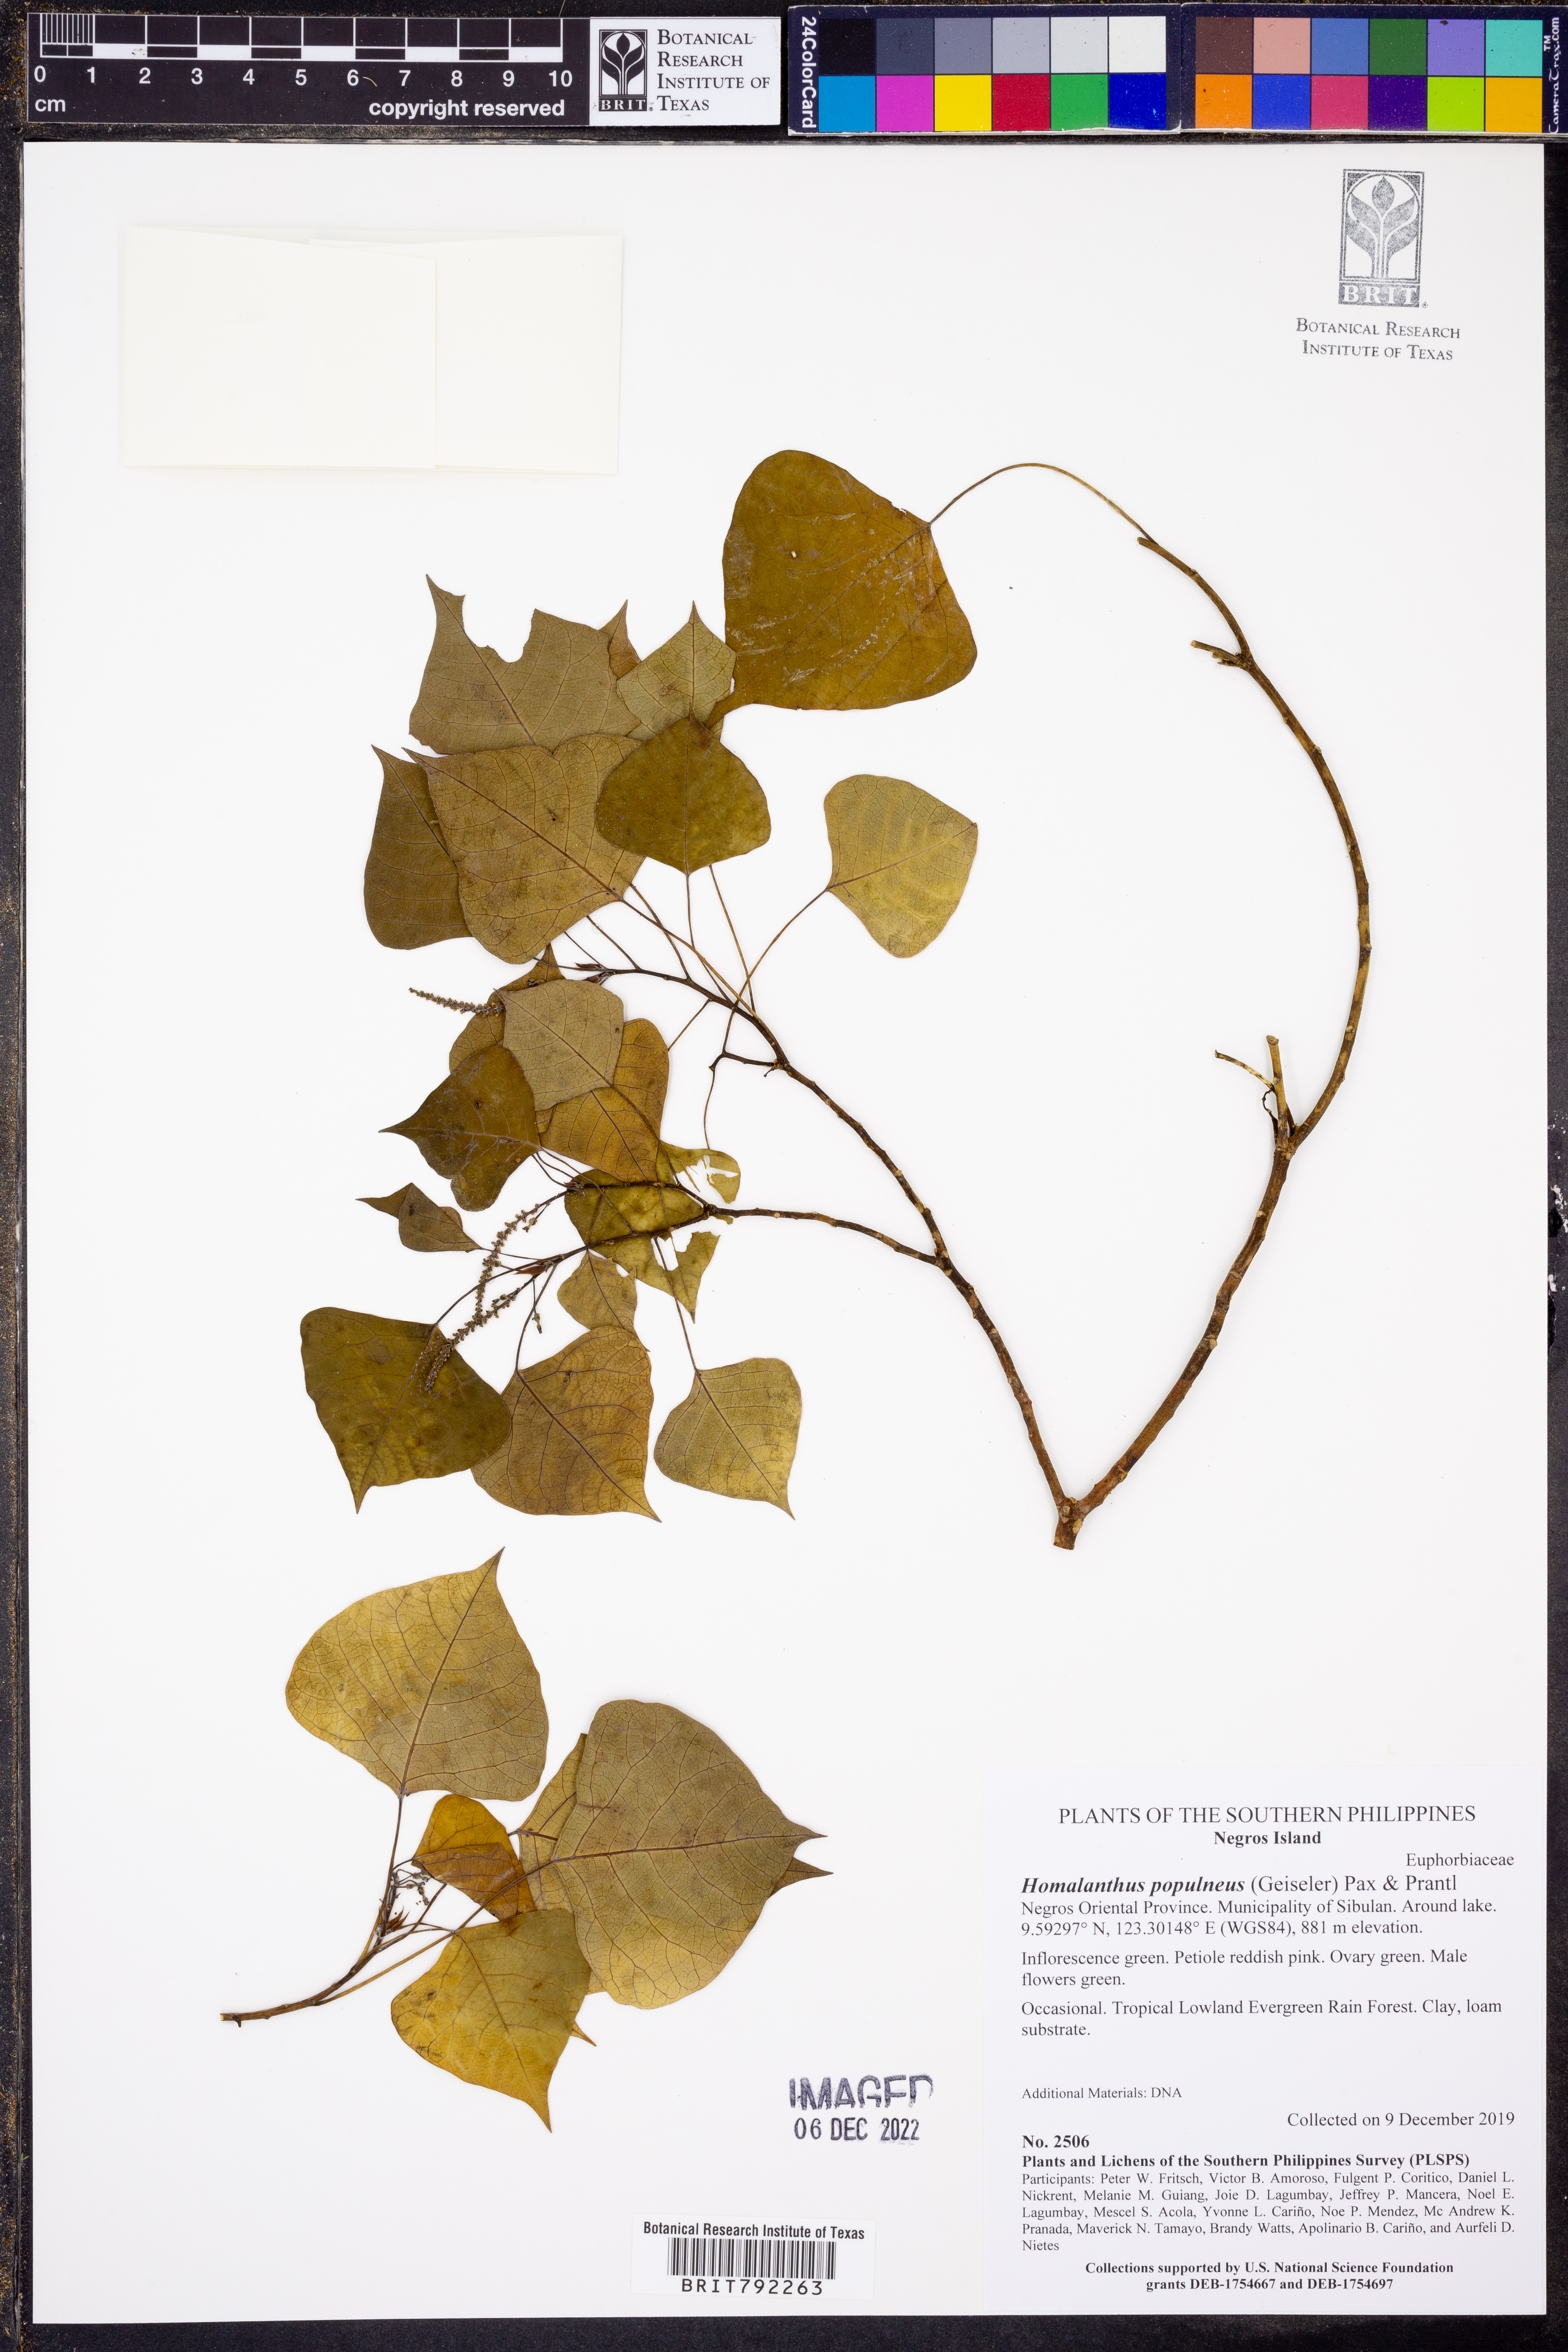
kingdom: Plantae
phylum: Tracheophyta
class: Magnoliopsida
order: Malpighiales
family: Euphorbiaceae
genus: Homalanthus
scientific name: Homalanthus populneus
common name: Spurge
